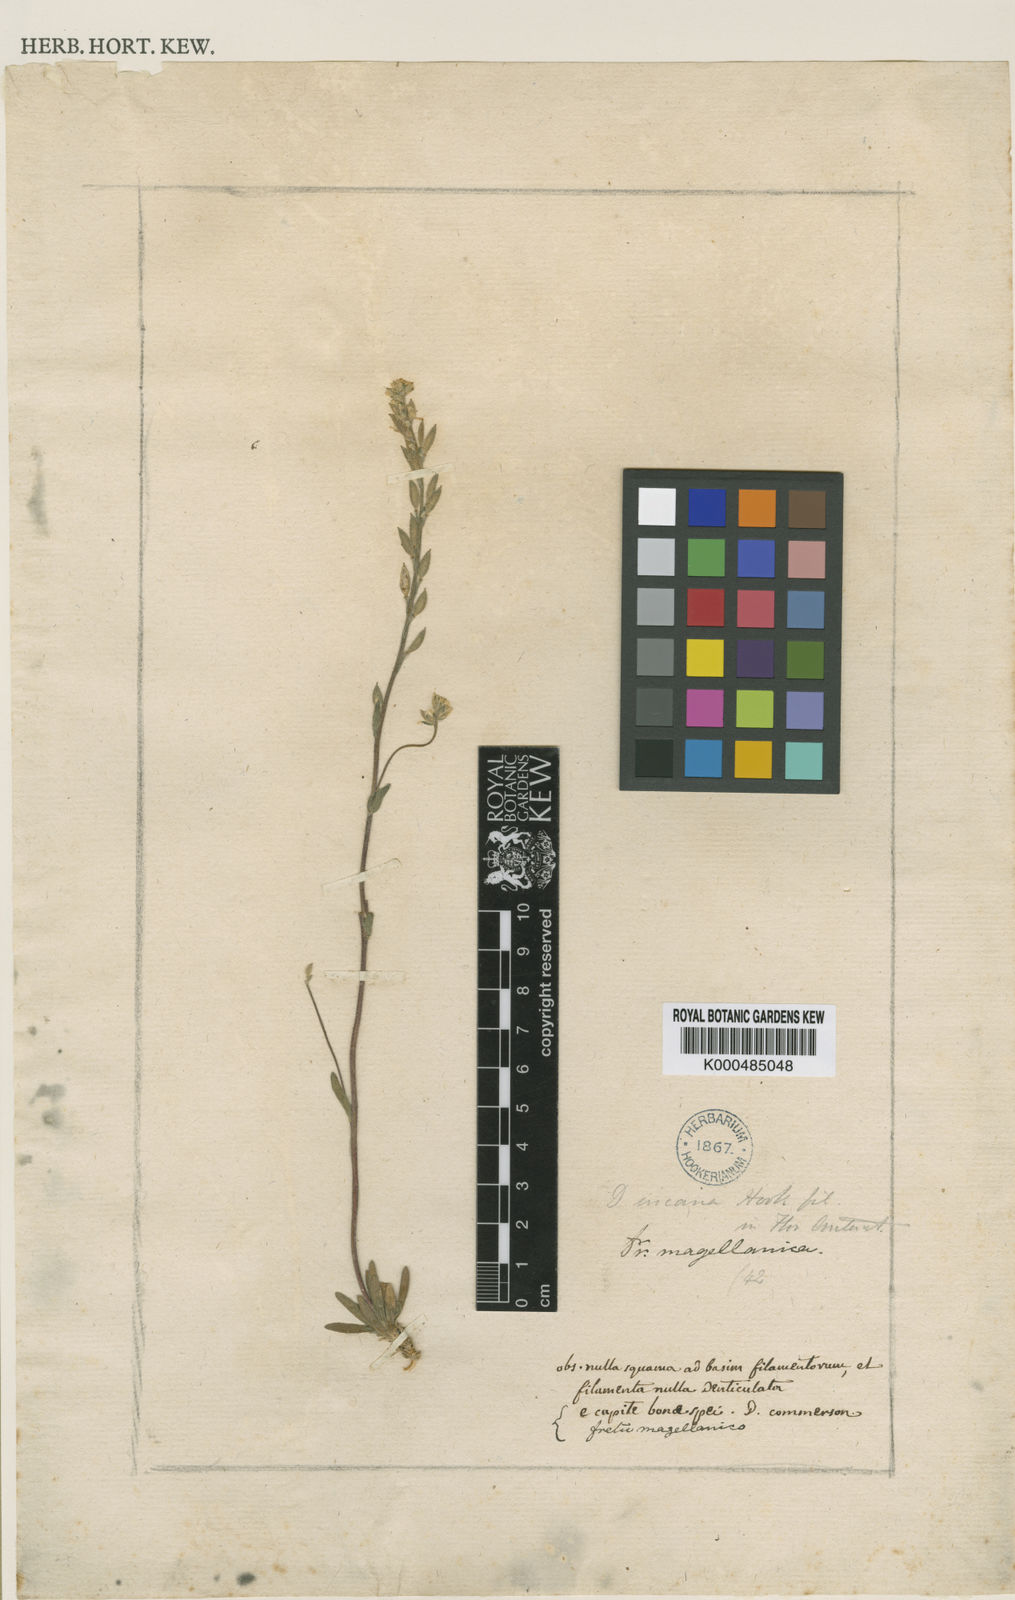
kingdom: Plantae
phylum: Tracheophyta
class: Magnoliopsida
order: Brassicales
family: Brassicaceae
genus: Draba
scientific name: Draba magellanica
